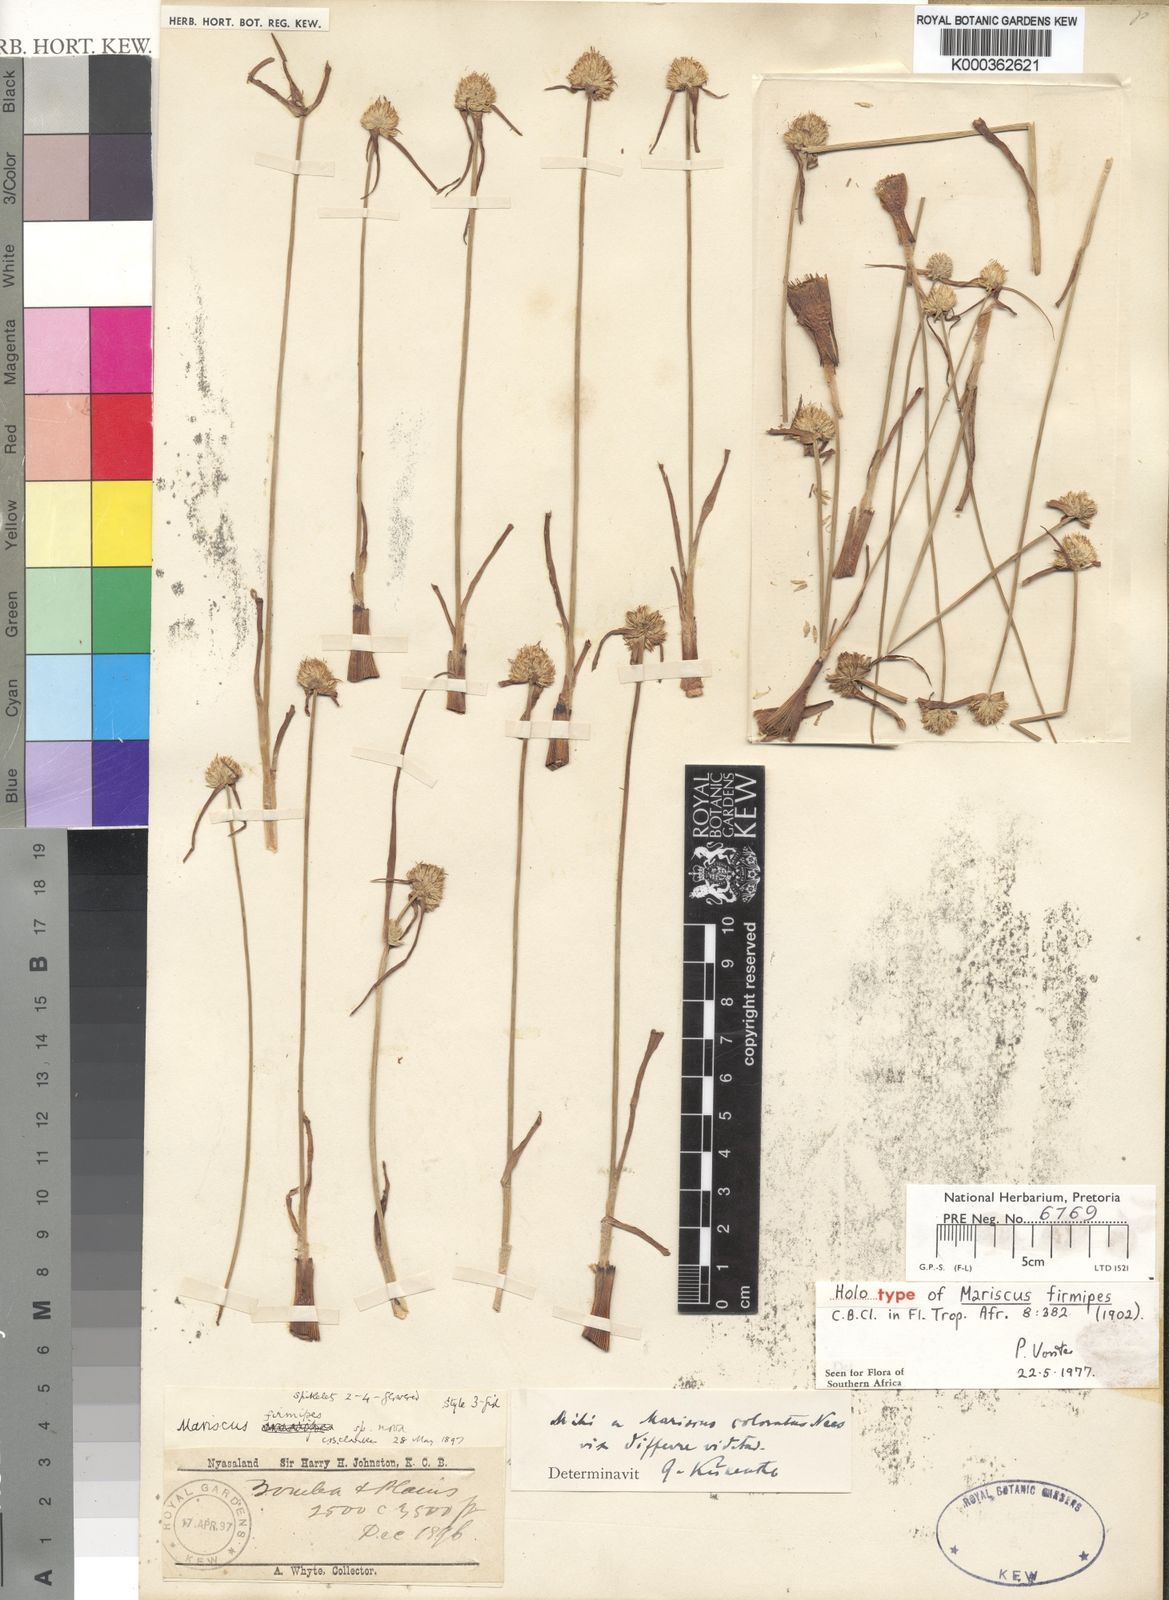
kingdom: Plantae
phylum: Tracheophyta
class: Liliopsida
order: Poales
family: Cyperaceae
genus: Cyperus
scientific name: Cyperus
